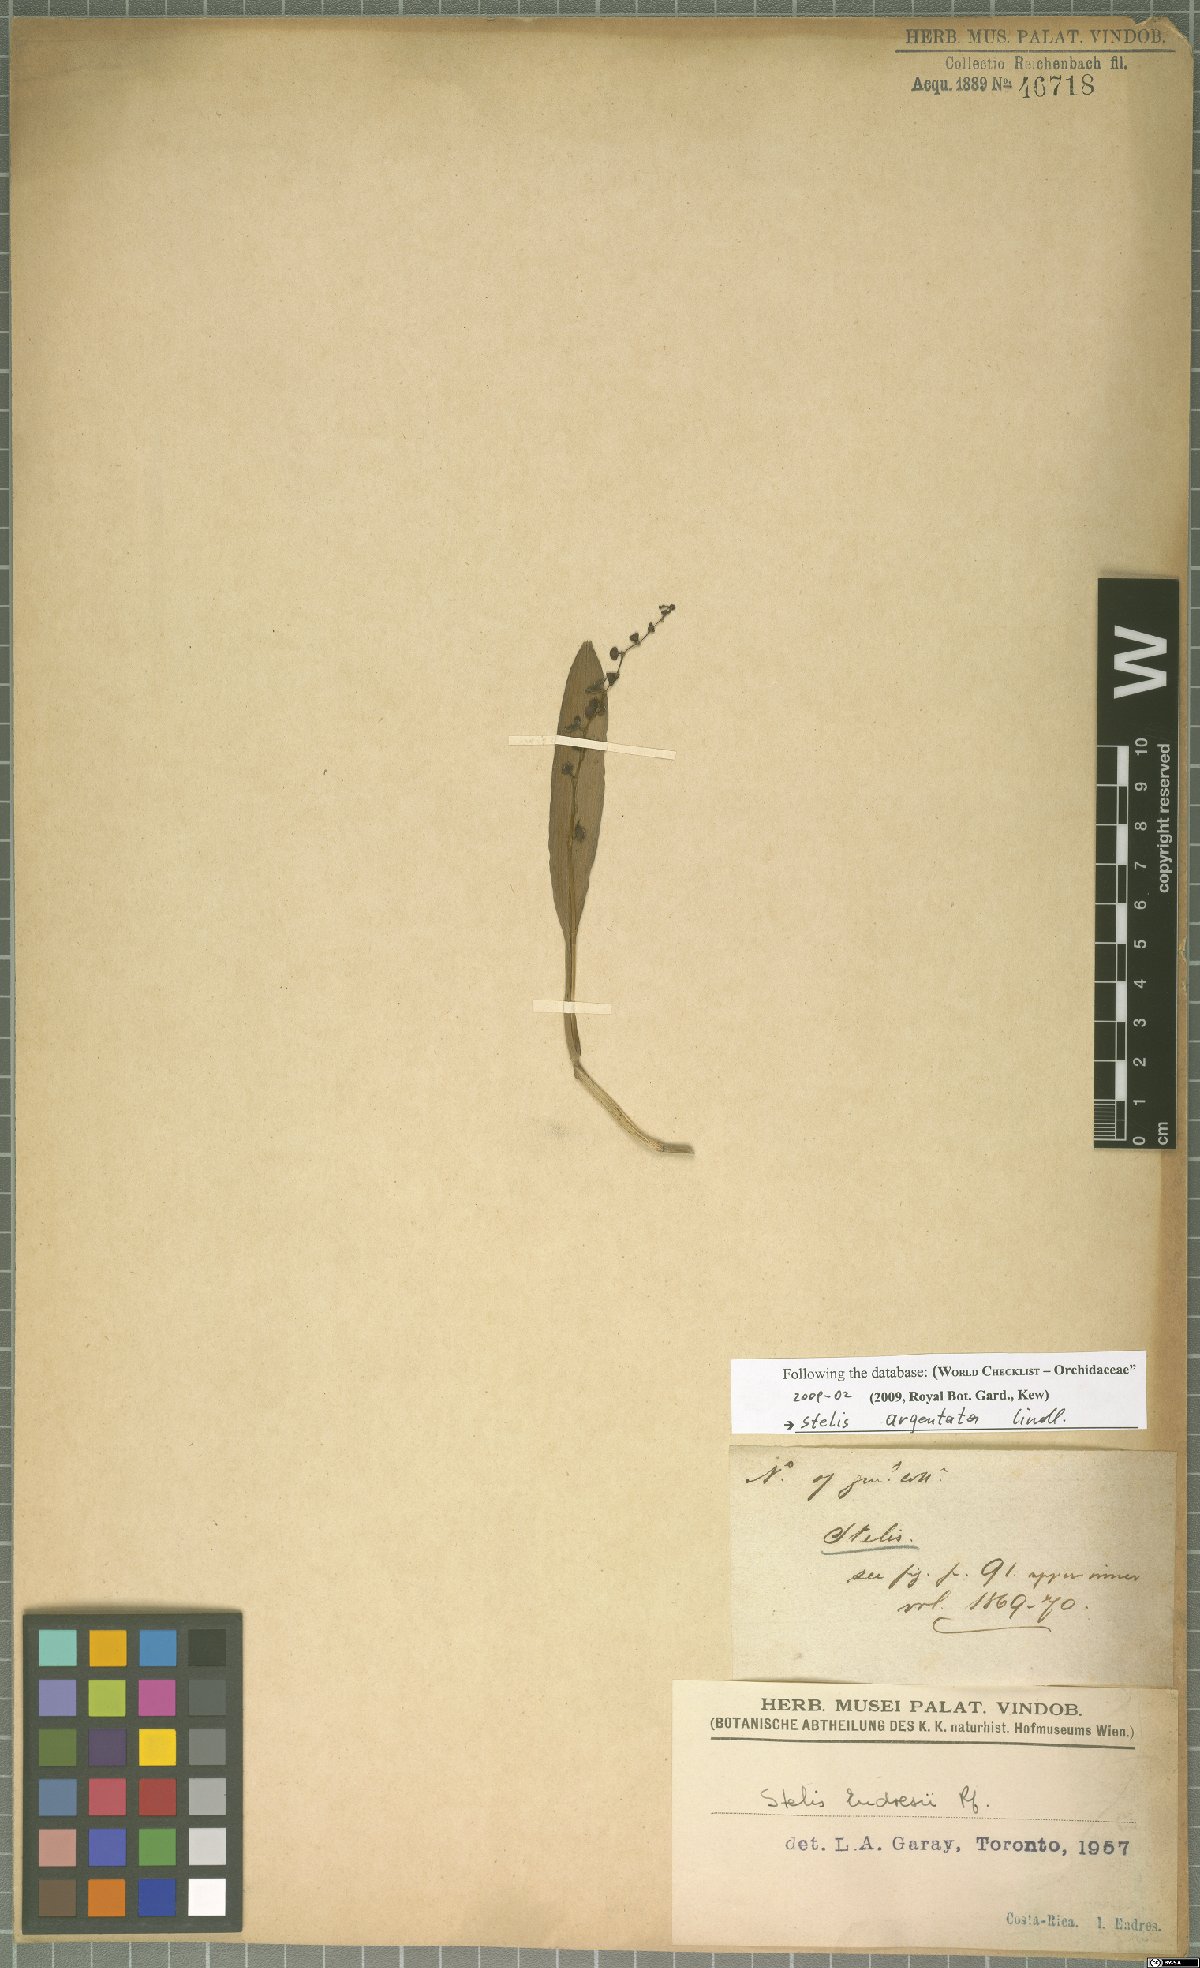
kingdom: Plantae
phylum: Tracheophyta
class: Liliopsida
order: Asparagales
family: Orchidaceae
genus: Stelis
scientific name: Stelis argentata
